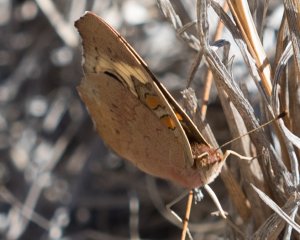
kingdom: Animalia
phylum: Arthropoda
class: Insecta
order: Lepidoptera
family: Nymphalidae
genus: Junonia
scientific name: Junonia coenia
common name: Common Buckeye
